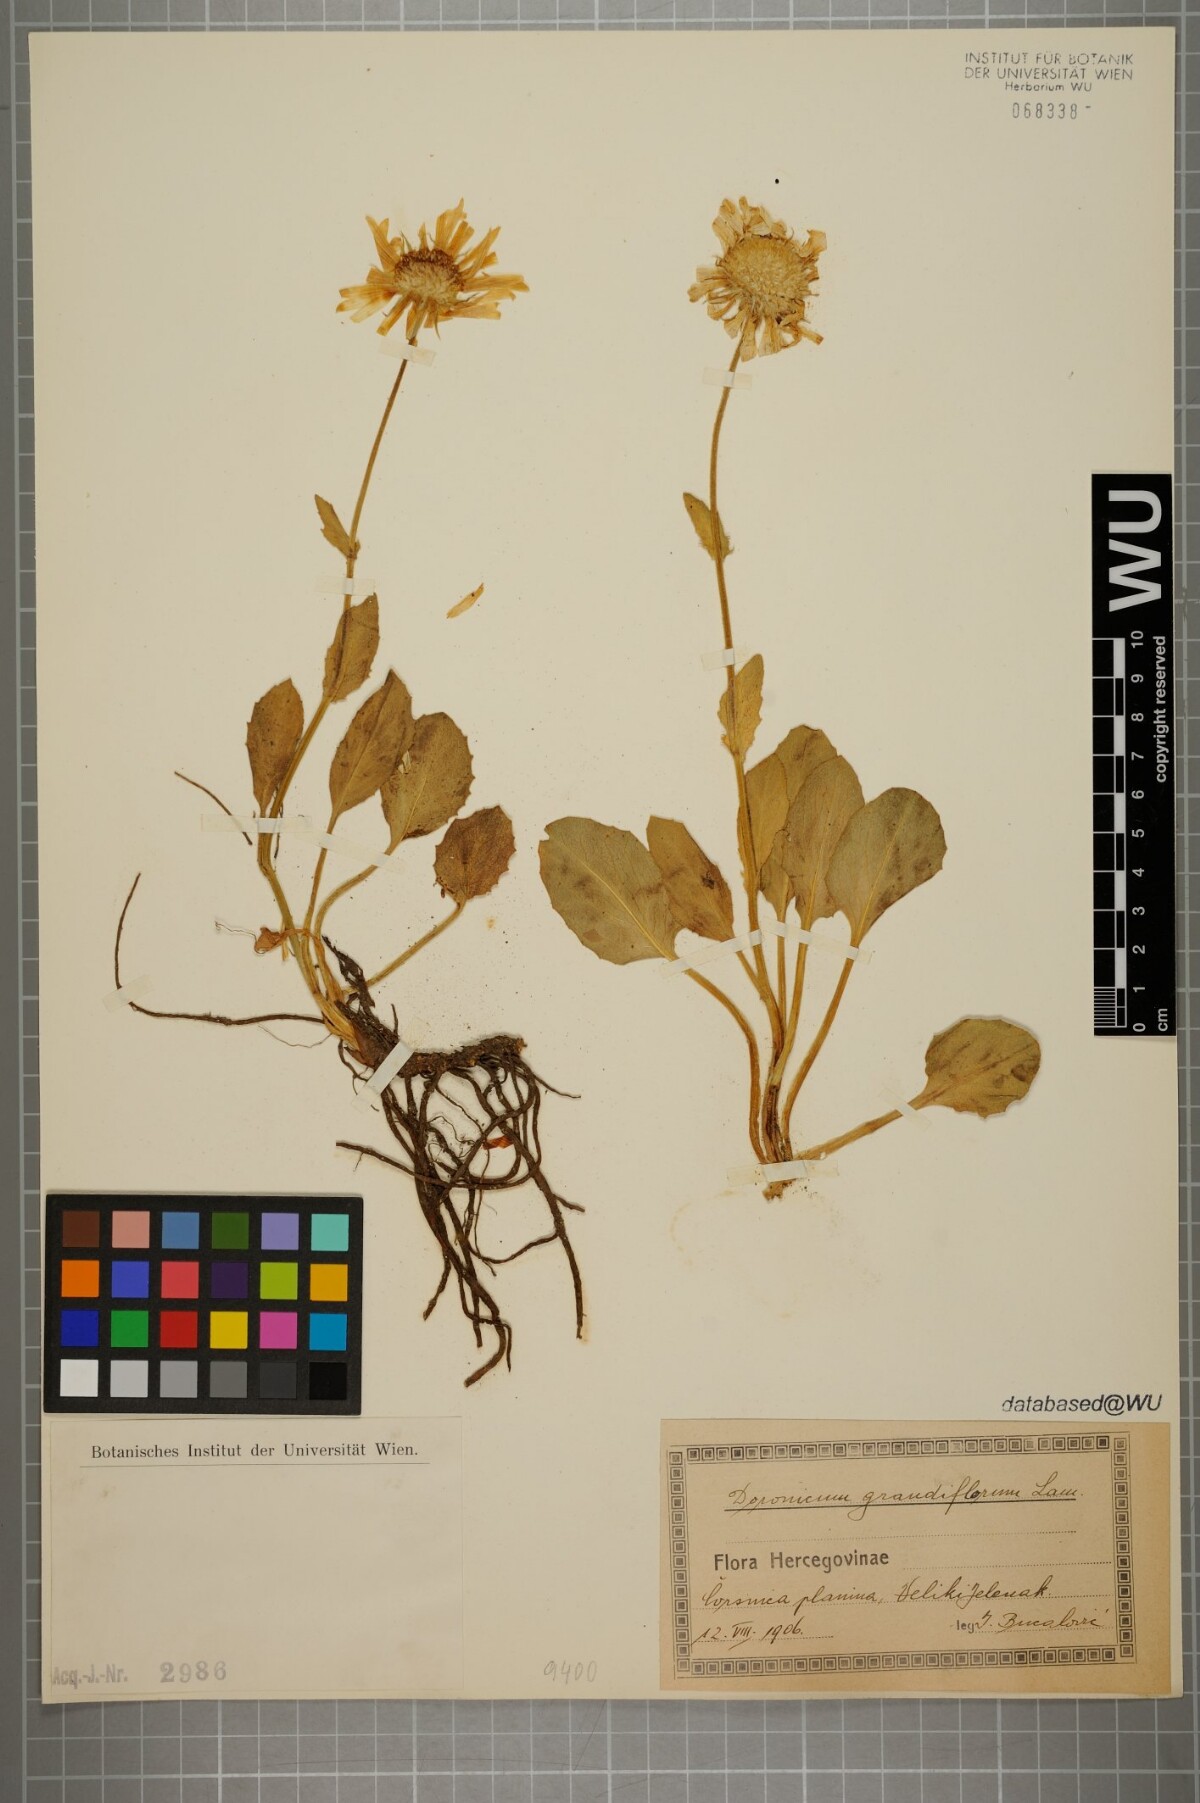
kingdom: Plantae
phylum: Tracheophyta
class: Magnoliopsida
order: Asterales
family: Asteraceae
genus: Doronicum
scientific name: Doronicum grandiflorum
